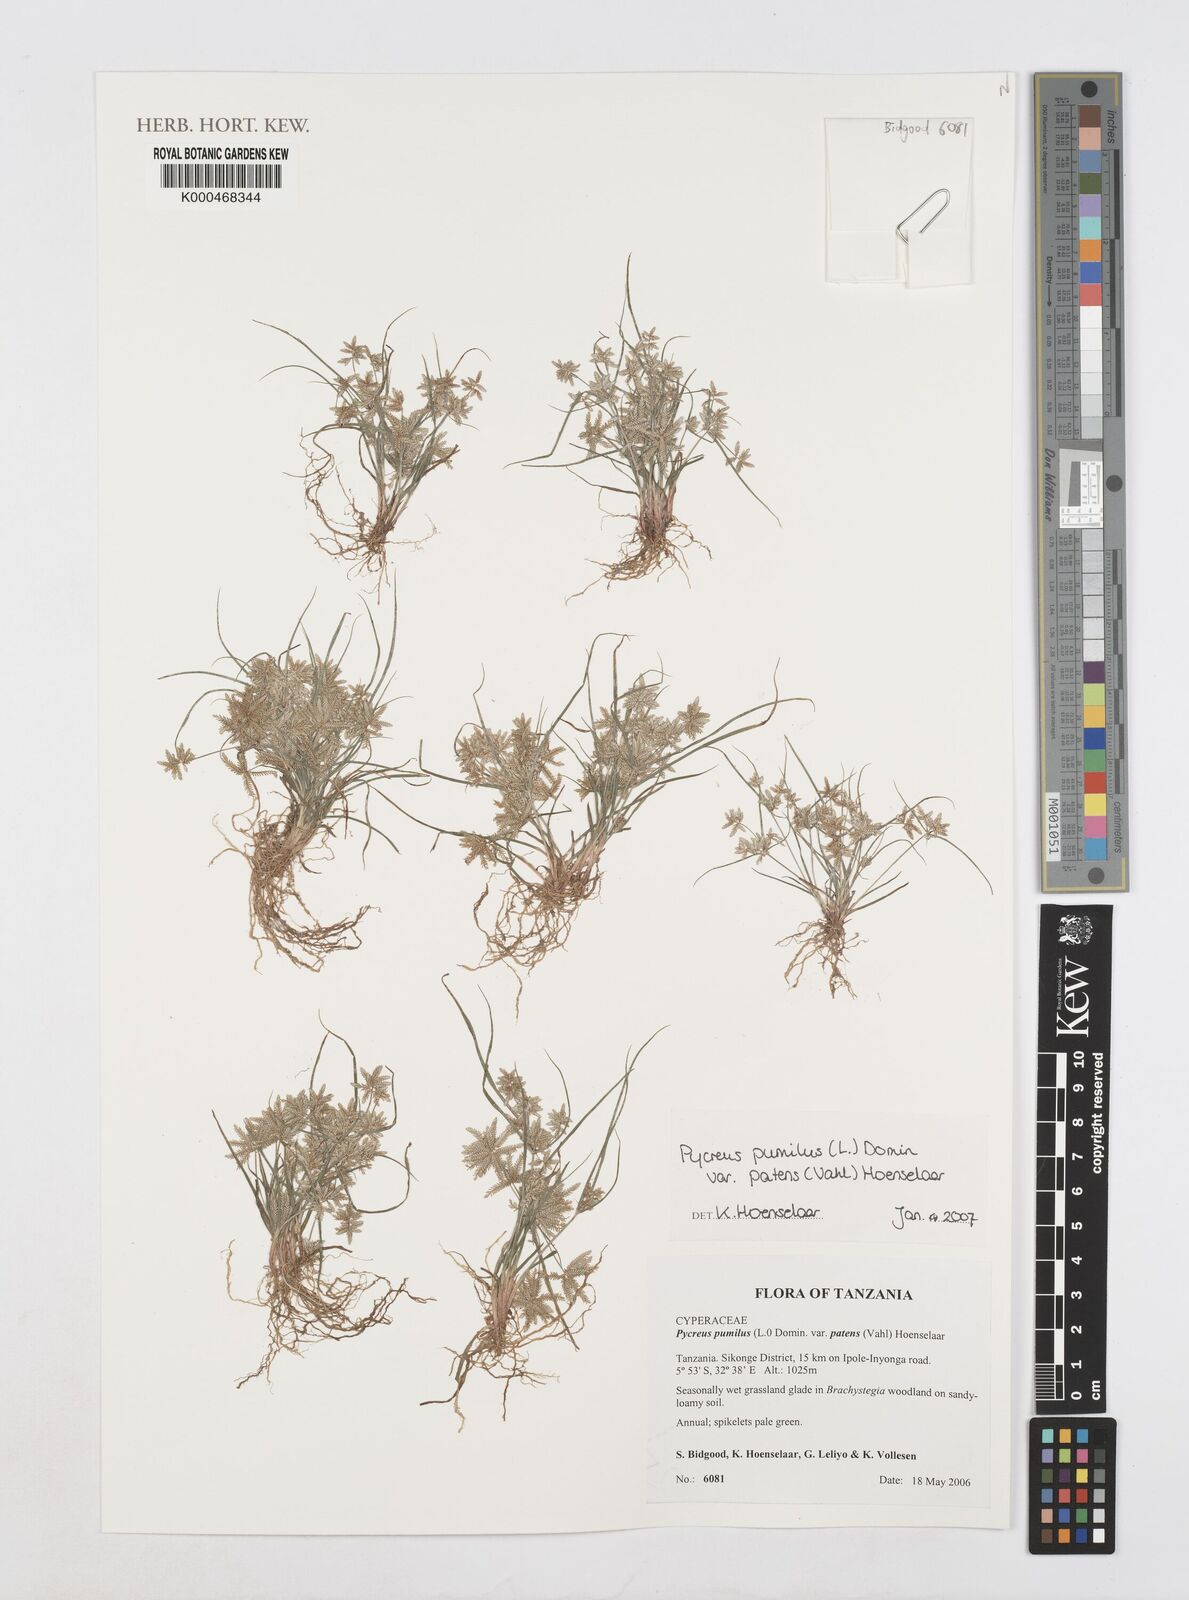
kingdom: Plantae
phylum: Tracheophyta
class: Liliopsida
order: Poales
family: Cyperaceae
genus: Cyperus
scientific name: Cyperus pumilus
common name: Low flatsedge
